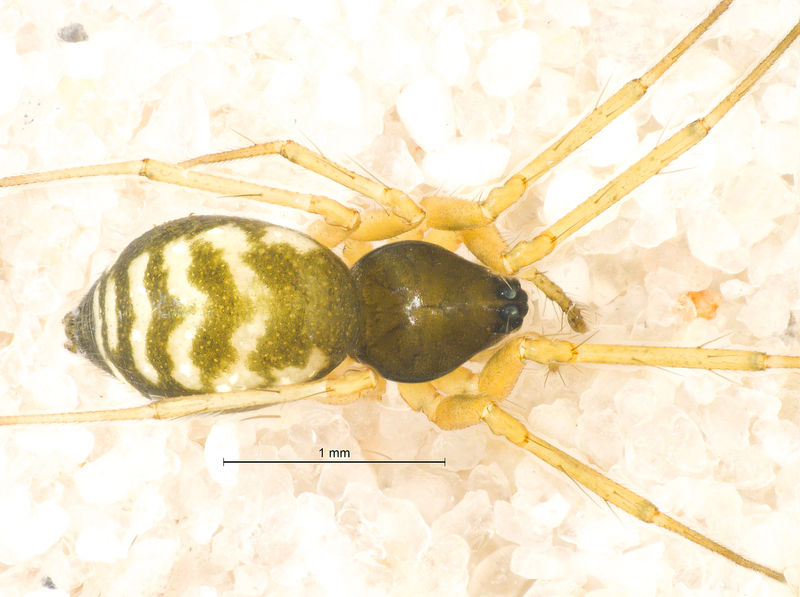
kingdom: Animalia
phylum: Arthropoda
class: Arachnida
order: Araneae
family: Linyphiidae
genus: Tenuiphantes
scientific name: Tenuiphantes flavipes
